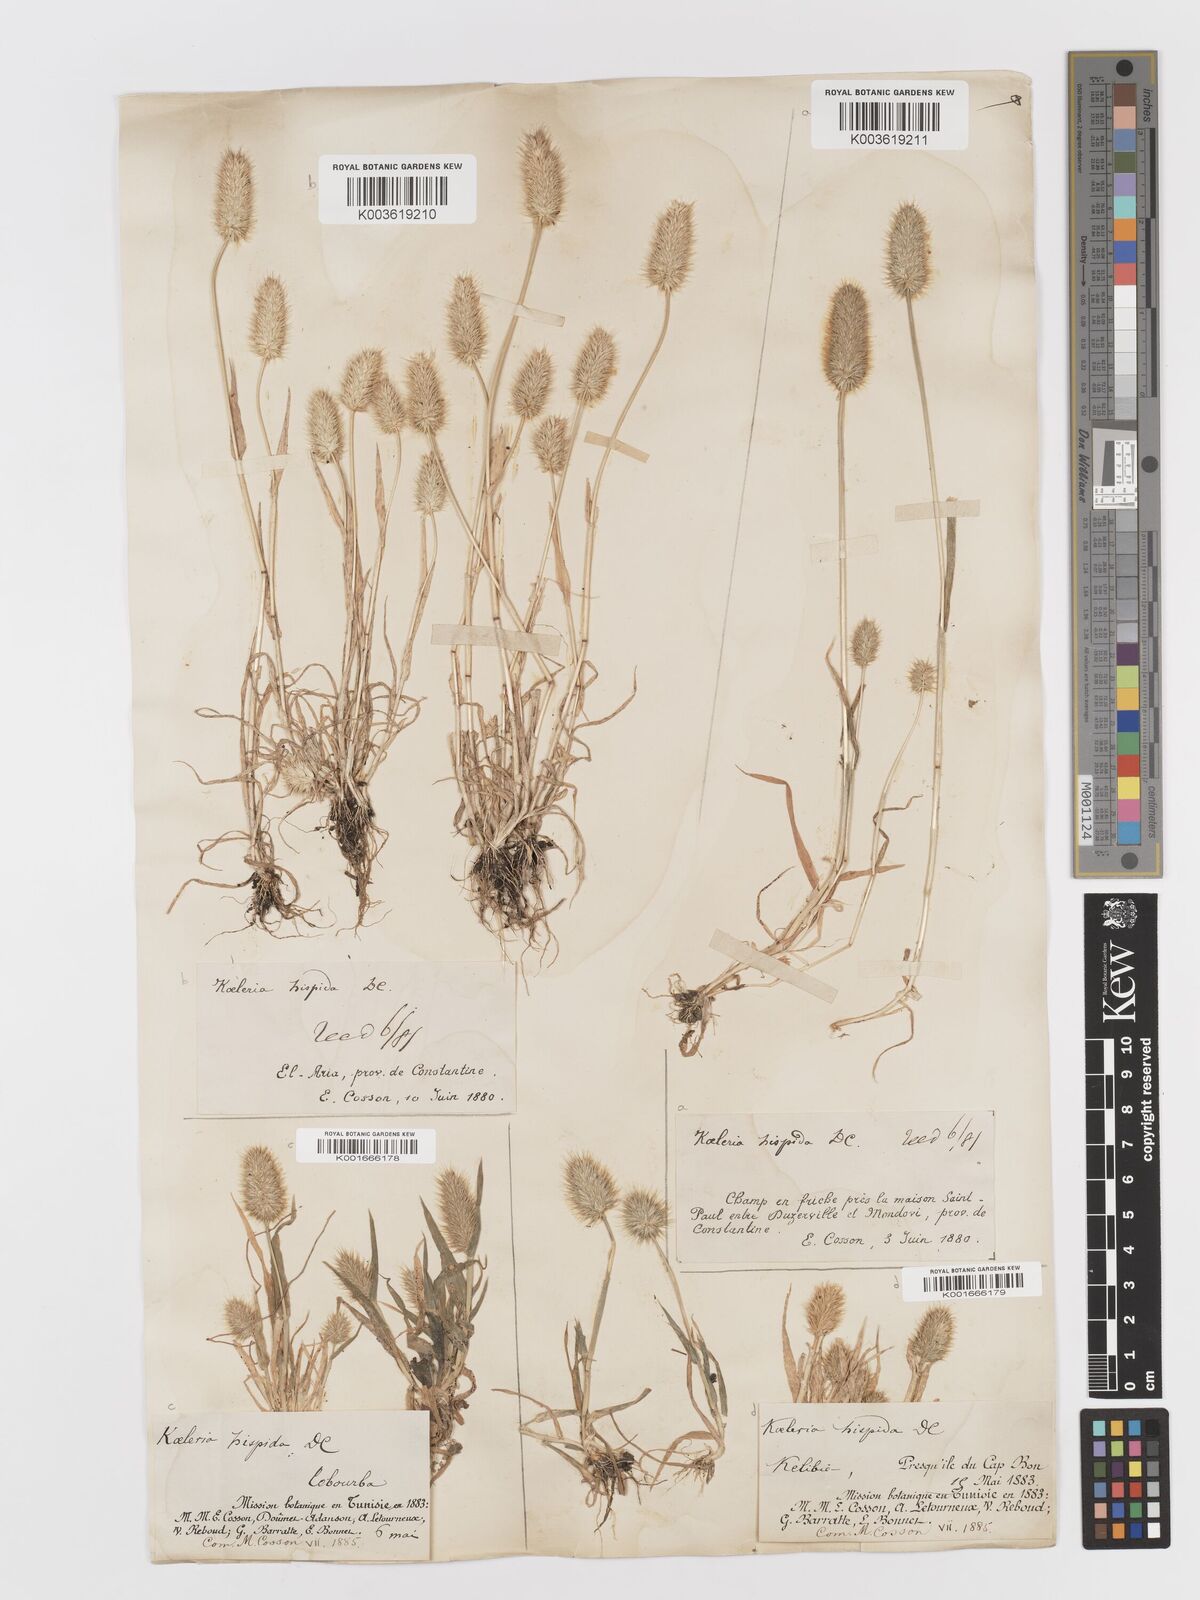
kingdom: Plantae
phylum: Tracheophyta
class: Liliopsida
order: Poales
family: Poaceae
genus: Rostraria
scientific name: Rostraria hispida
